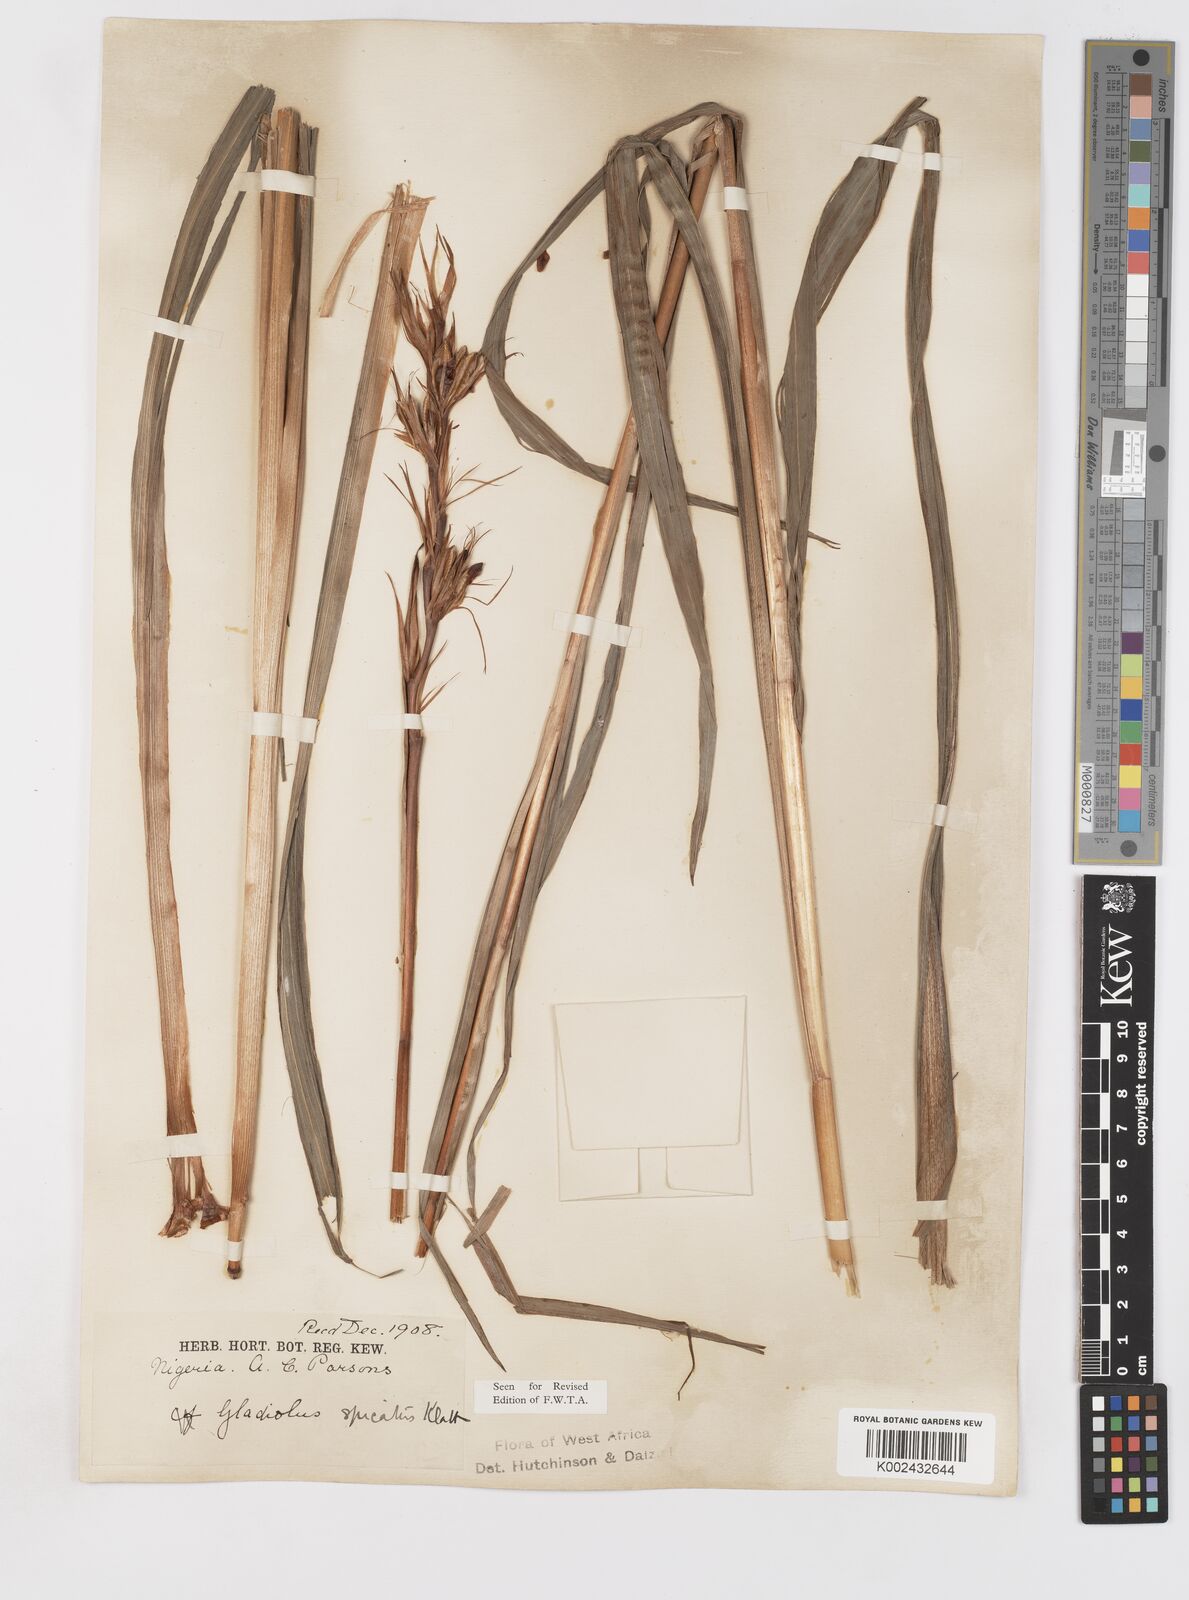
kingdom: Plantae
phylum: Tracheophyta
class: Liliopsida
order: Asparagales
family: Iridaceae
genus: Gladiolus
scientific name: Gladiolus gregarius
